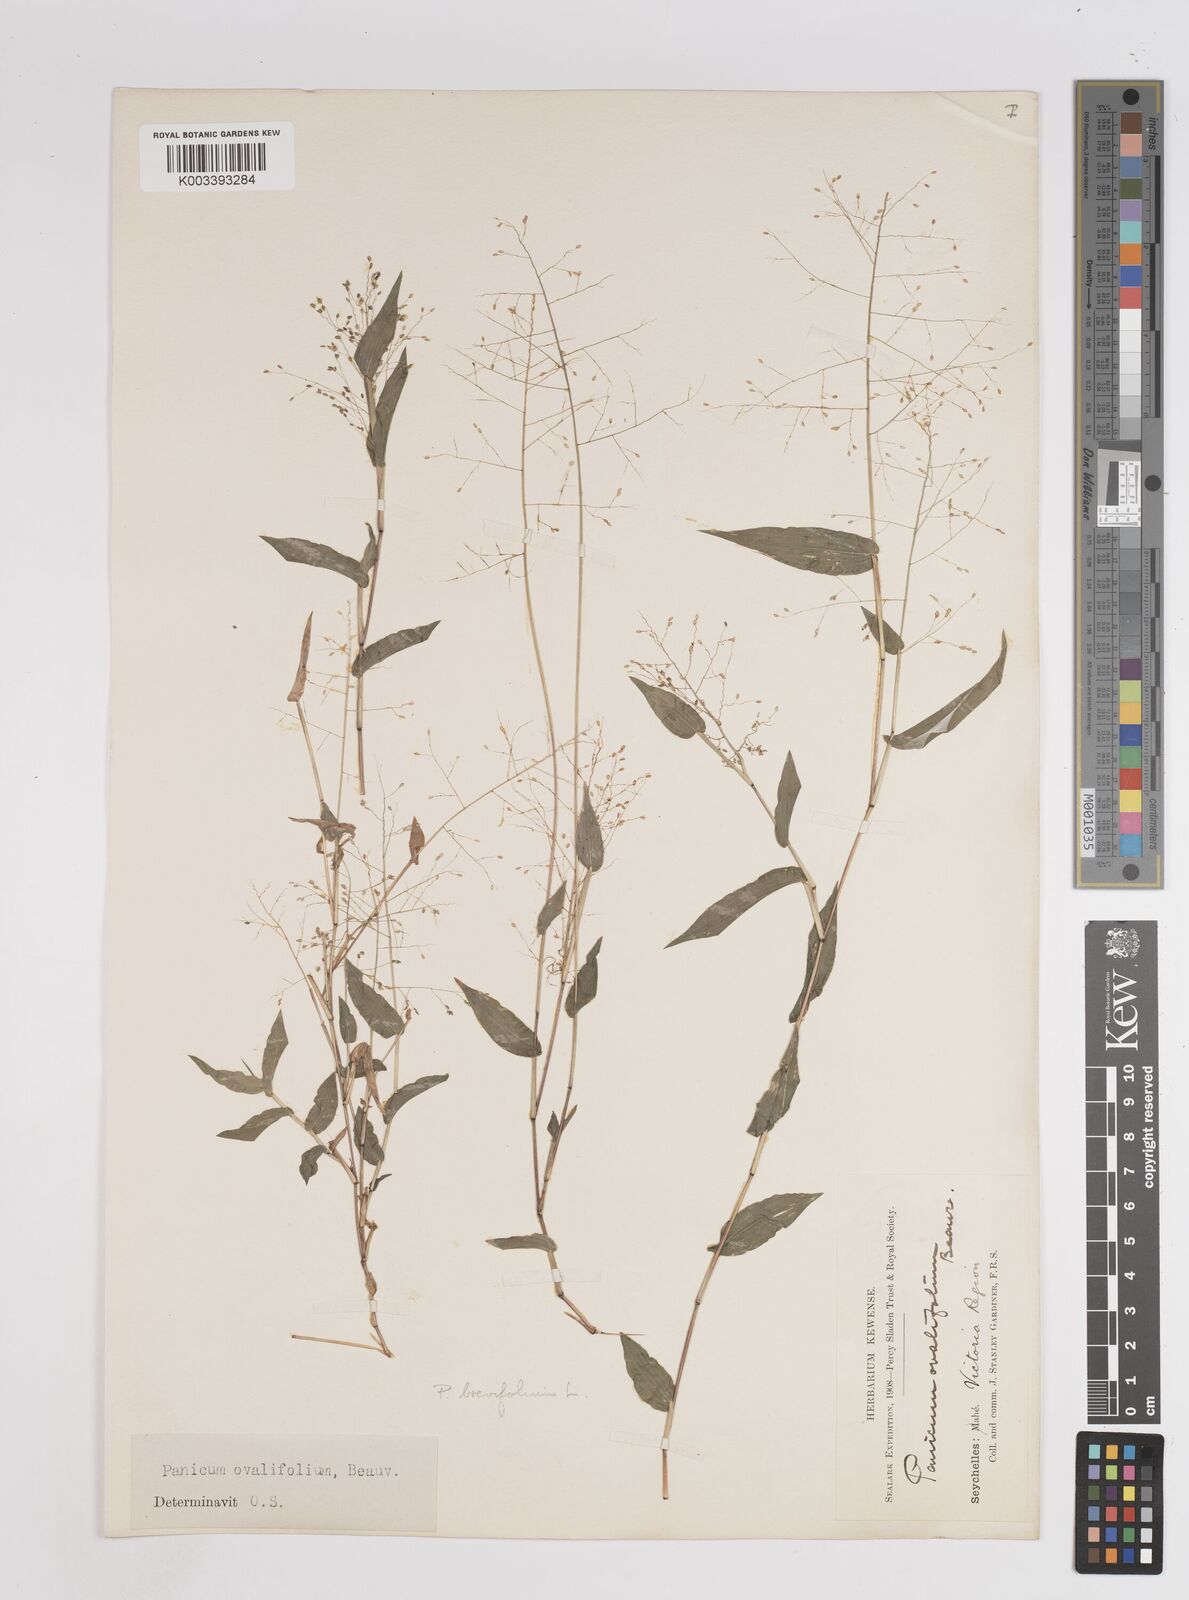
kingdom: Plantae
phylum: Tracheophyta
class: Liliopsida
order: Poales
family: Poaceae
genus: Panicum
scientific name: Panicum brevifolium
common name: Shortleaf panic grass
